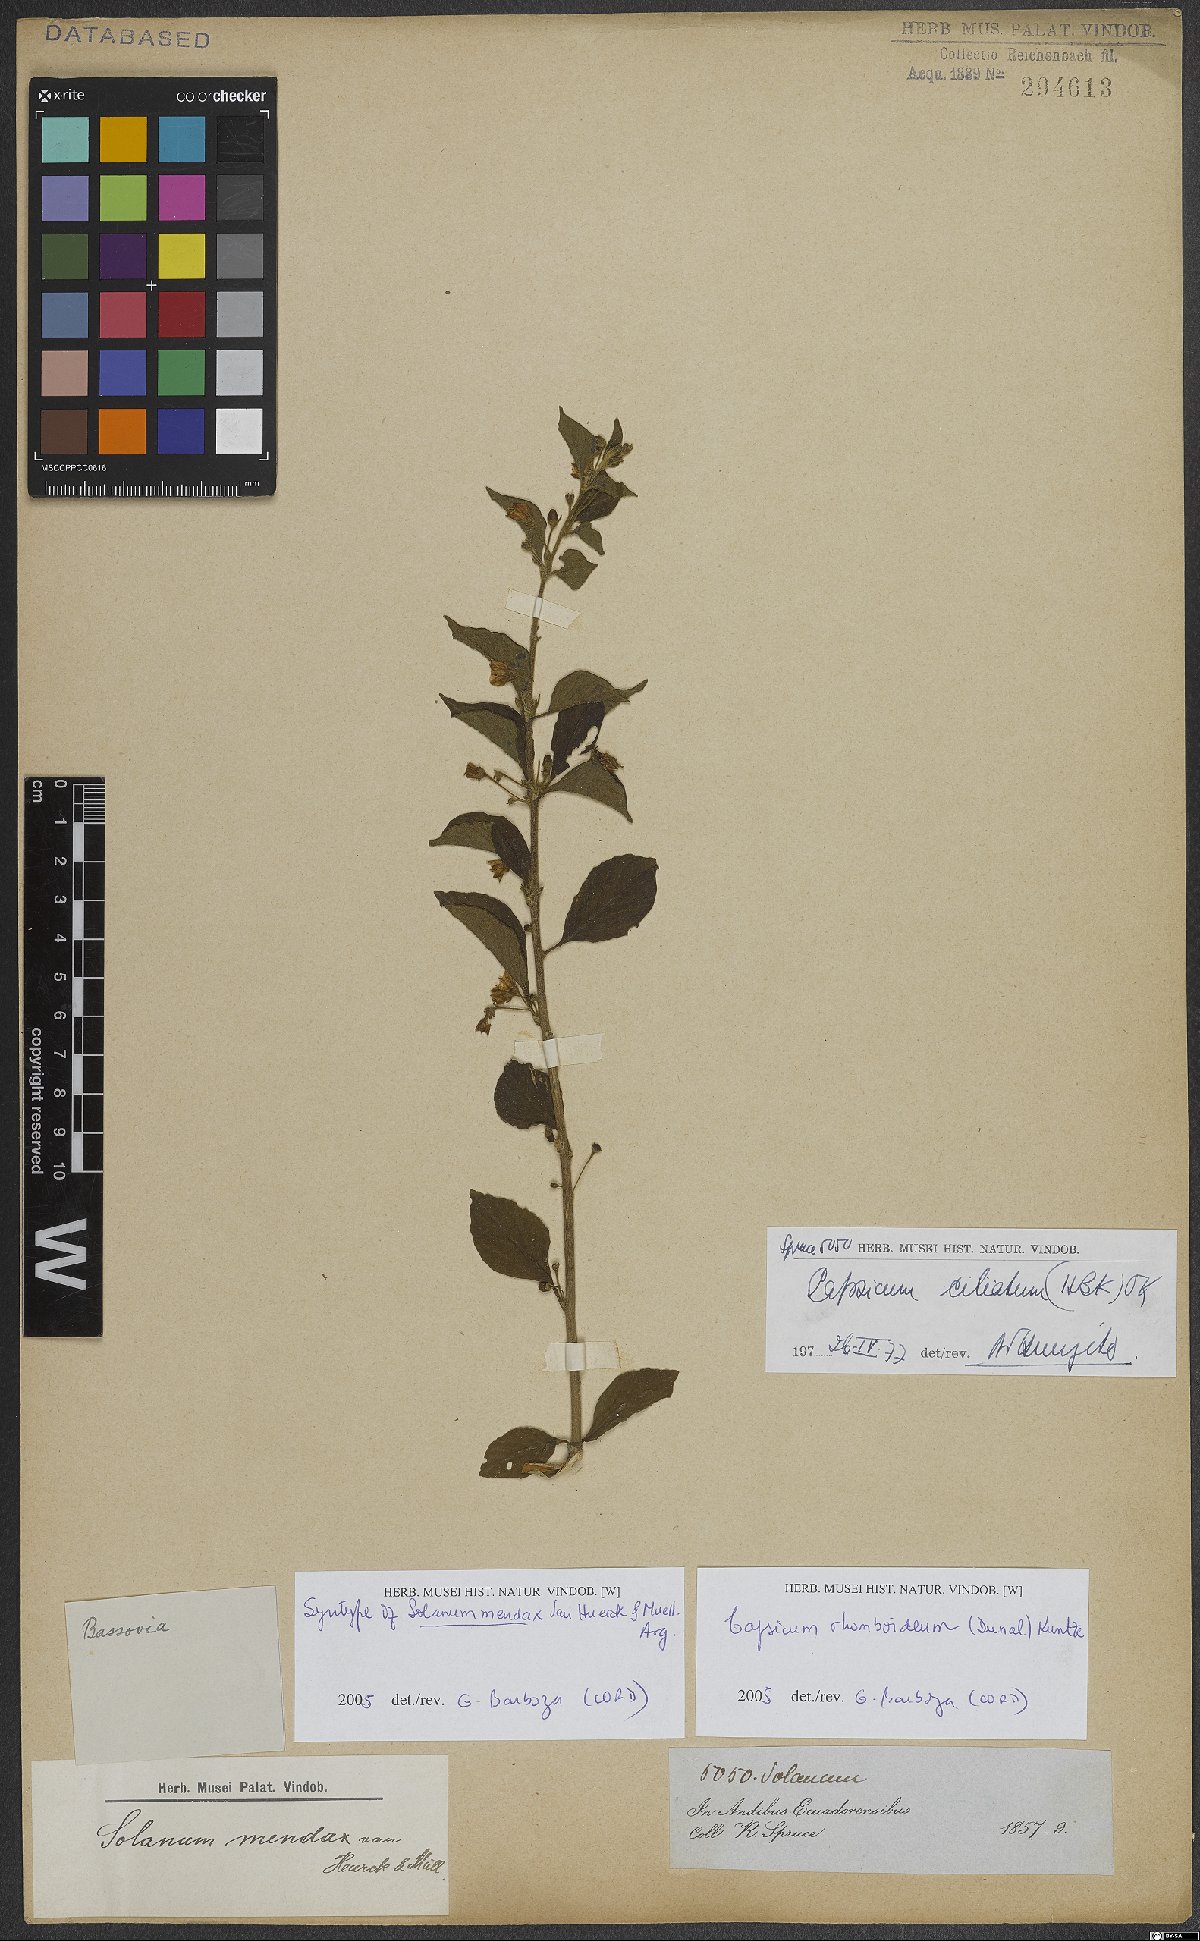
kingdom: Plantae
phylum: Tracheophyta
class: Magnoliopsida
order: Solanales
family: Solanaceae
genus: Capsicum
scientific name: Capsicum rhomboideum
